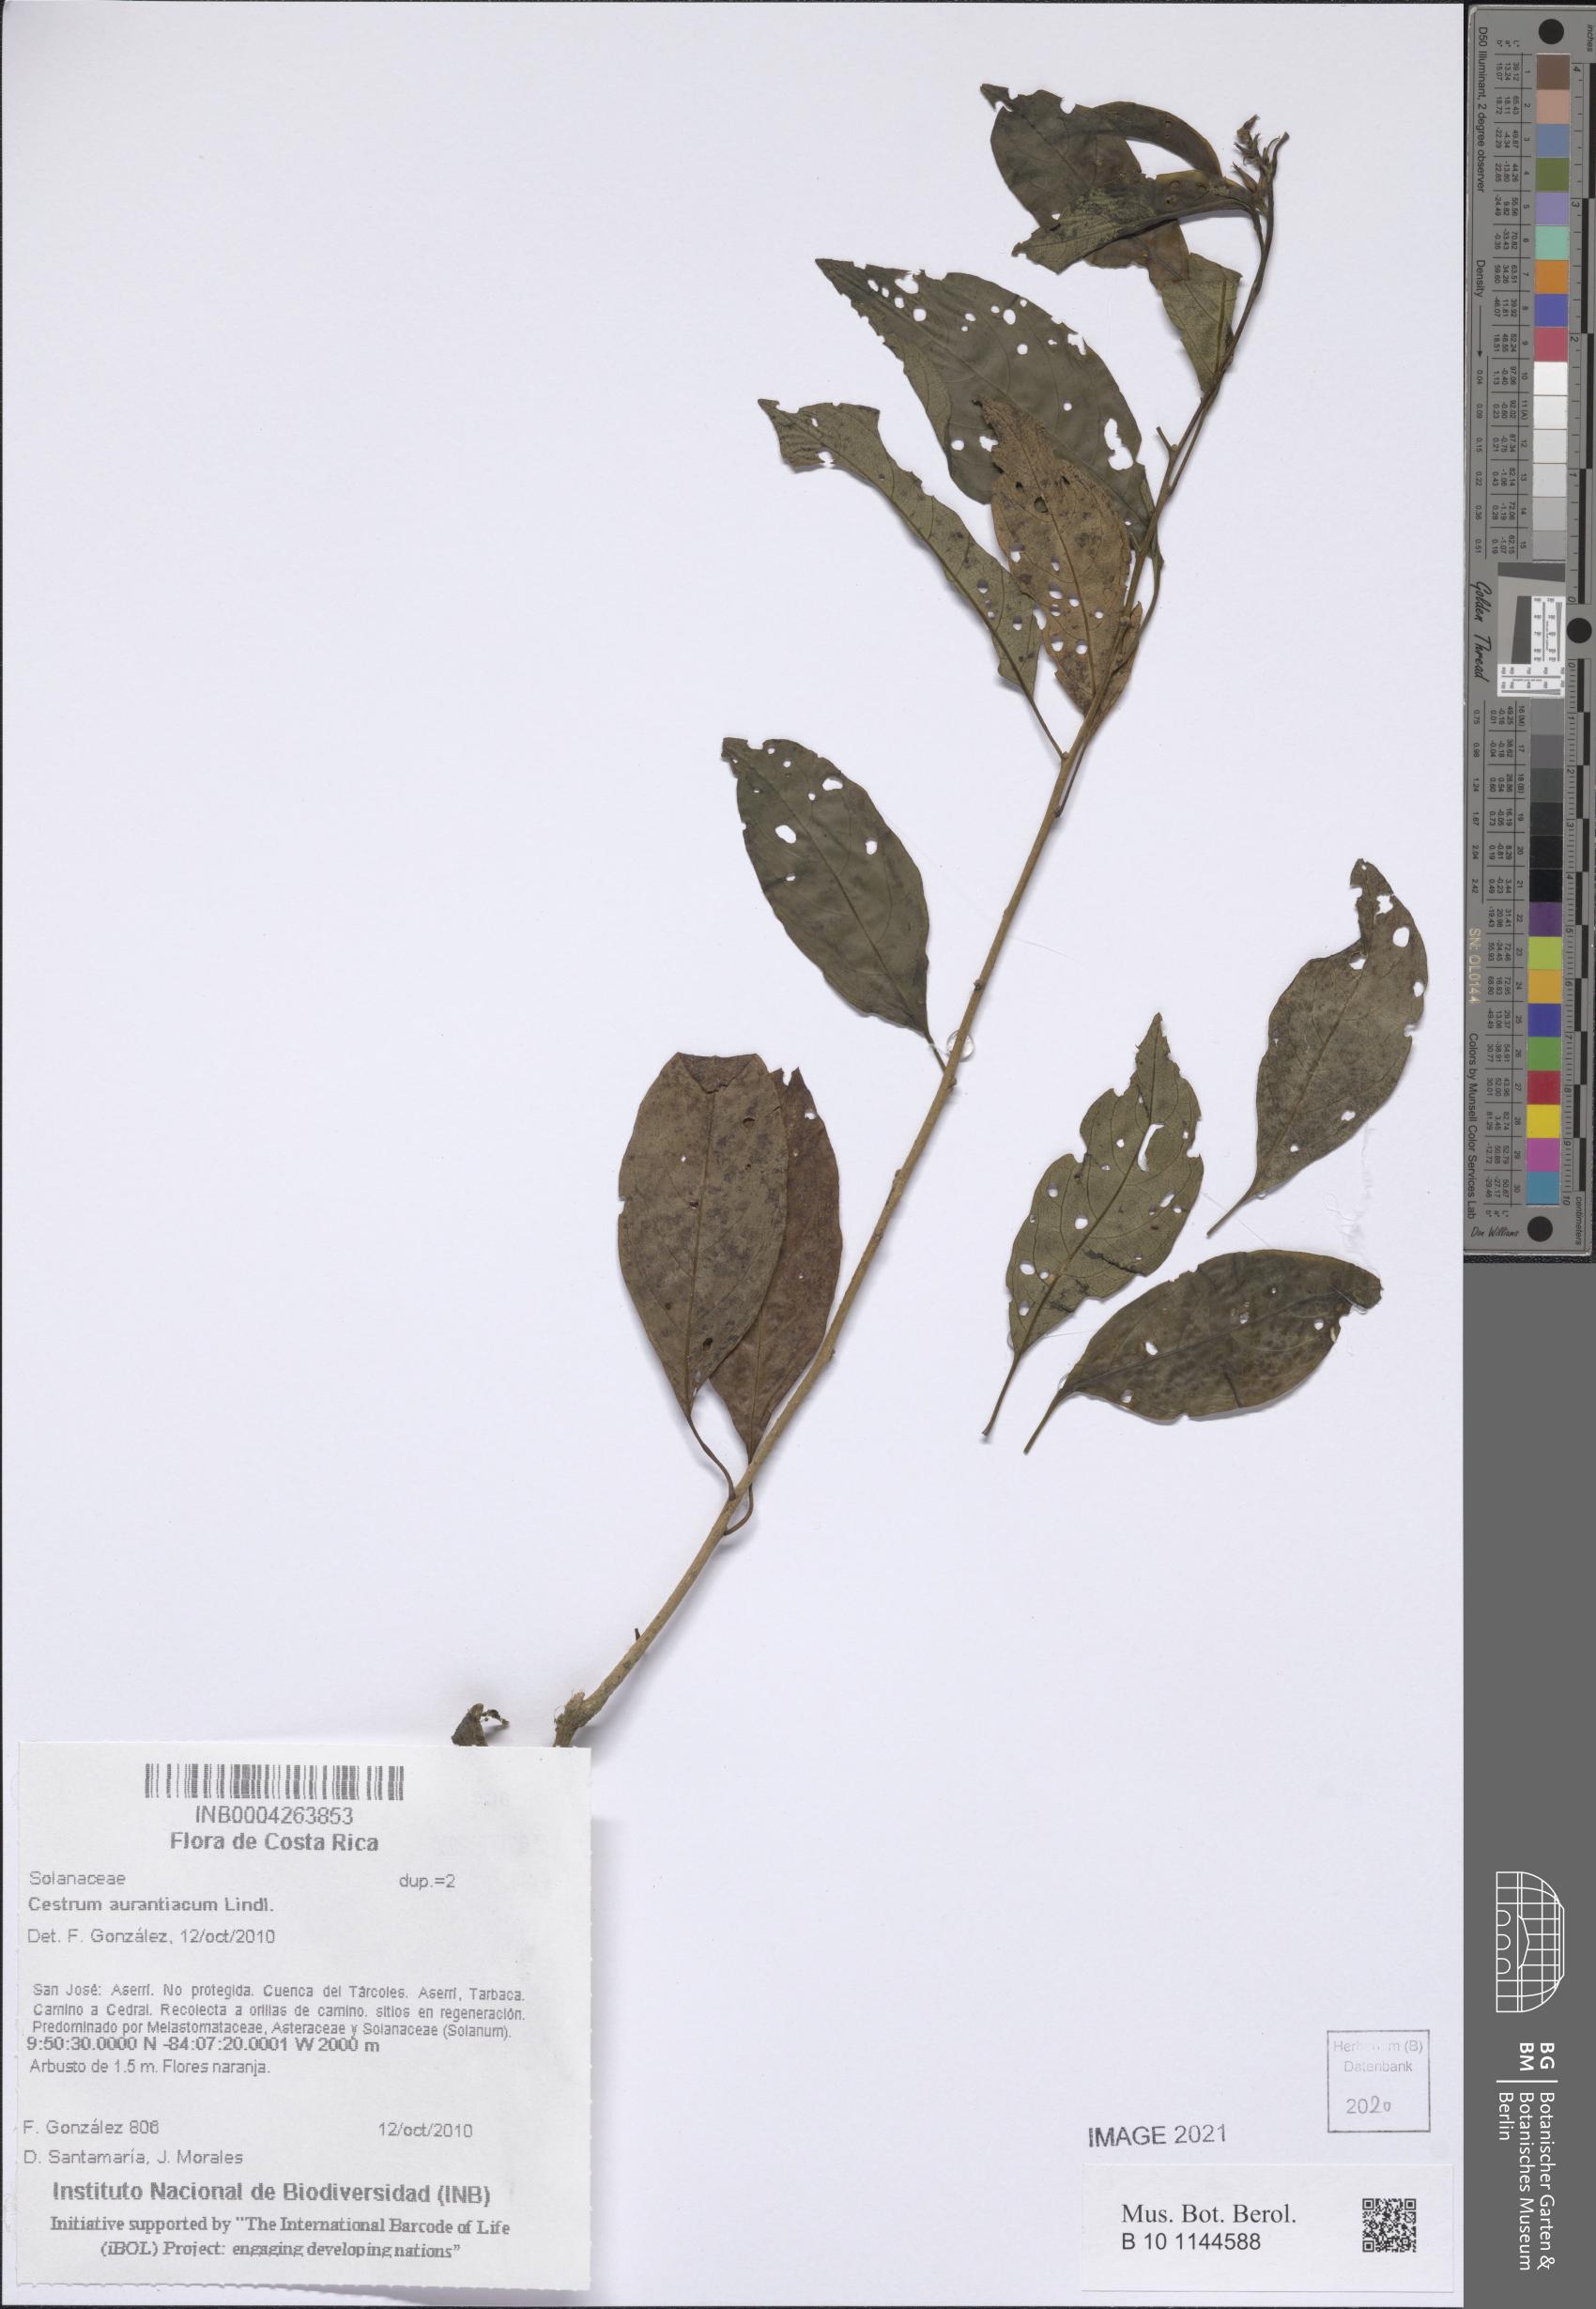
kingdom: Plantae
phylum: Tracheophyta
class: Magnoliopsida
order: Solanales
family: Solanaceae
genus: Cestrum
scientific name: Cestrum aurantiacum
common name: Orange cestrum
